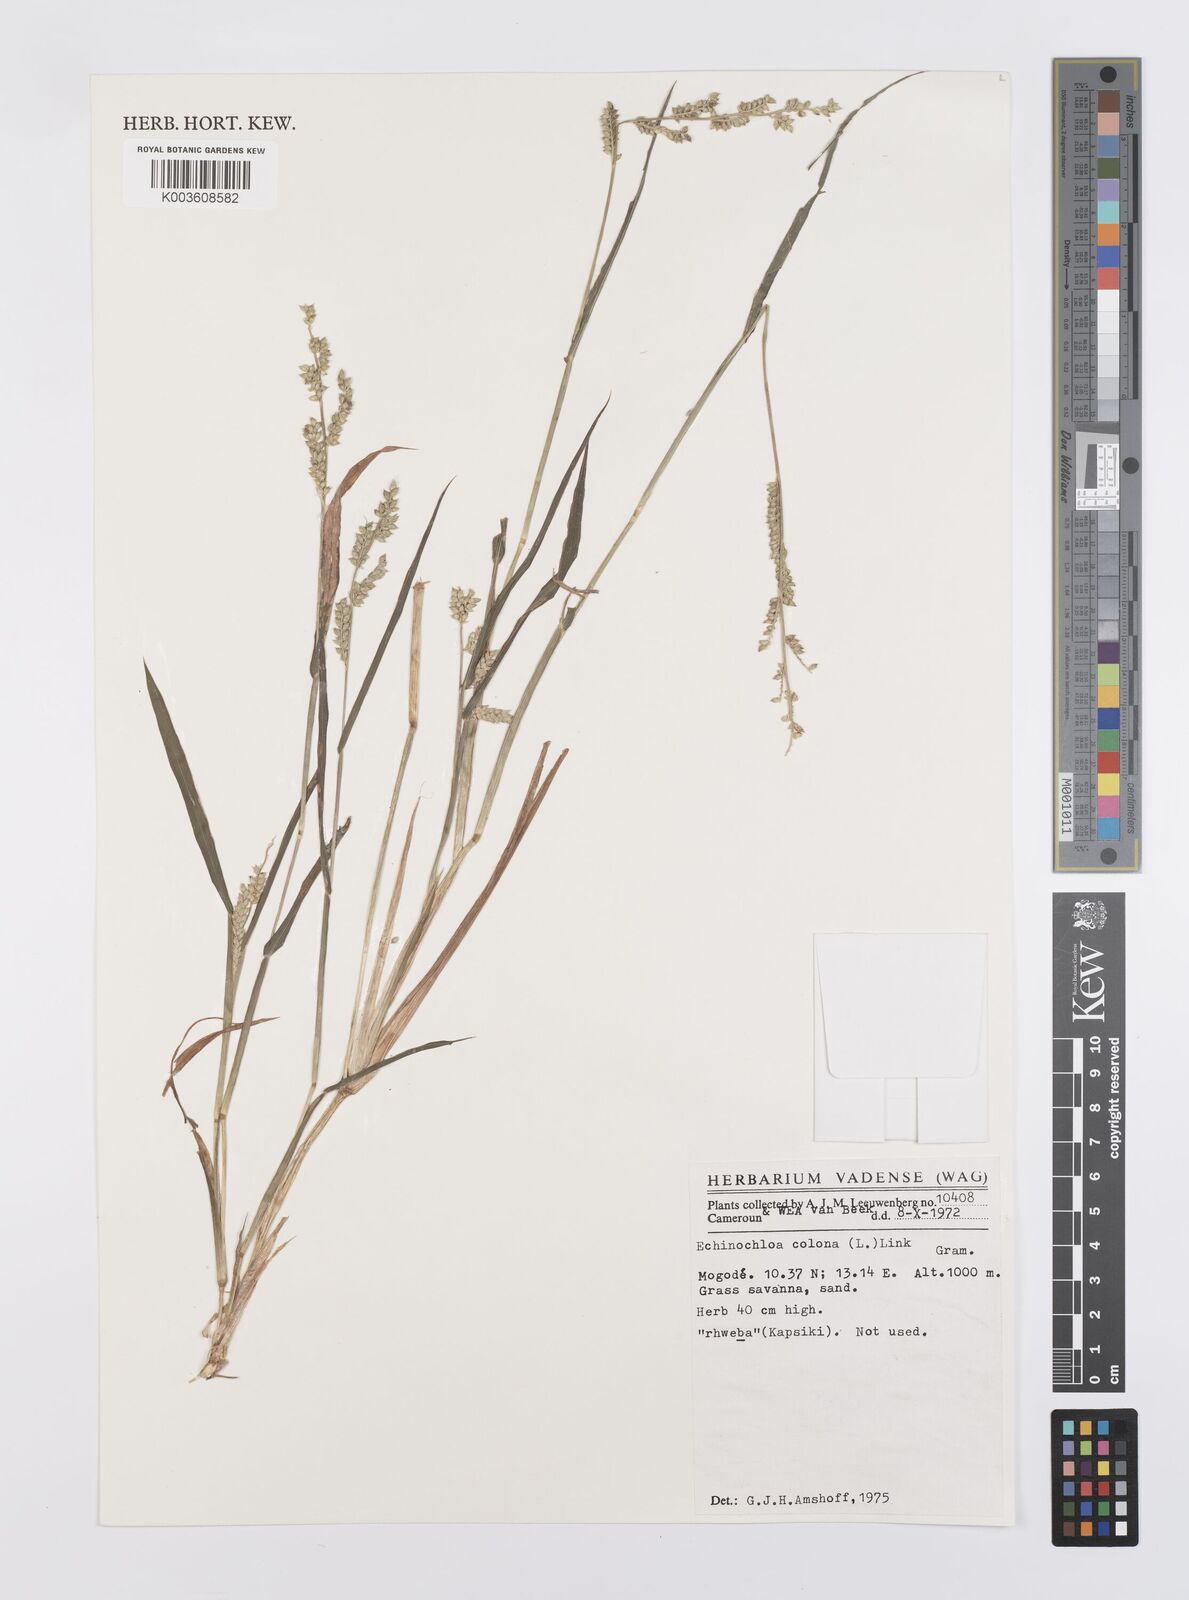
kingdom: Plantae
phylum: Tracheophyta
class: Liliopsida
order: Poales
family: Poaceae
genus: Echinochloa
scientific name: Echinochloa colonum
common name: Jungle rice
